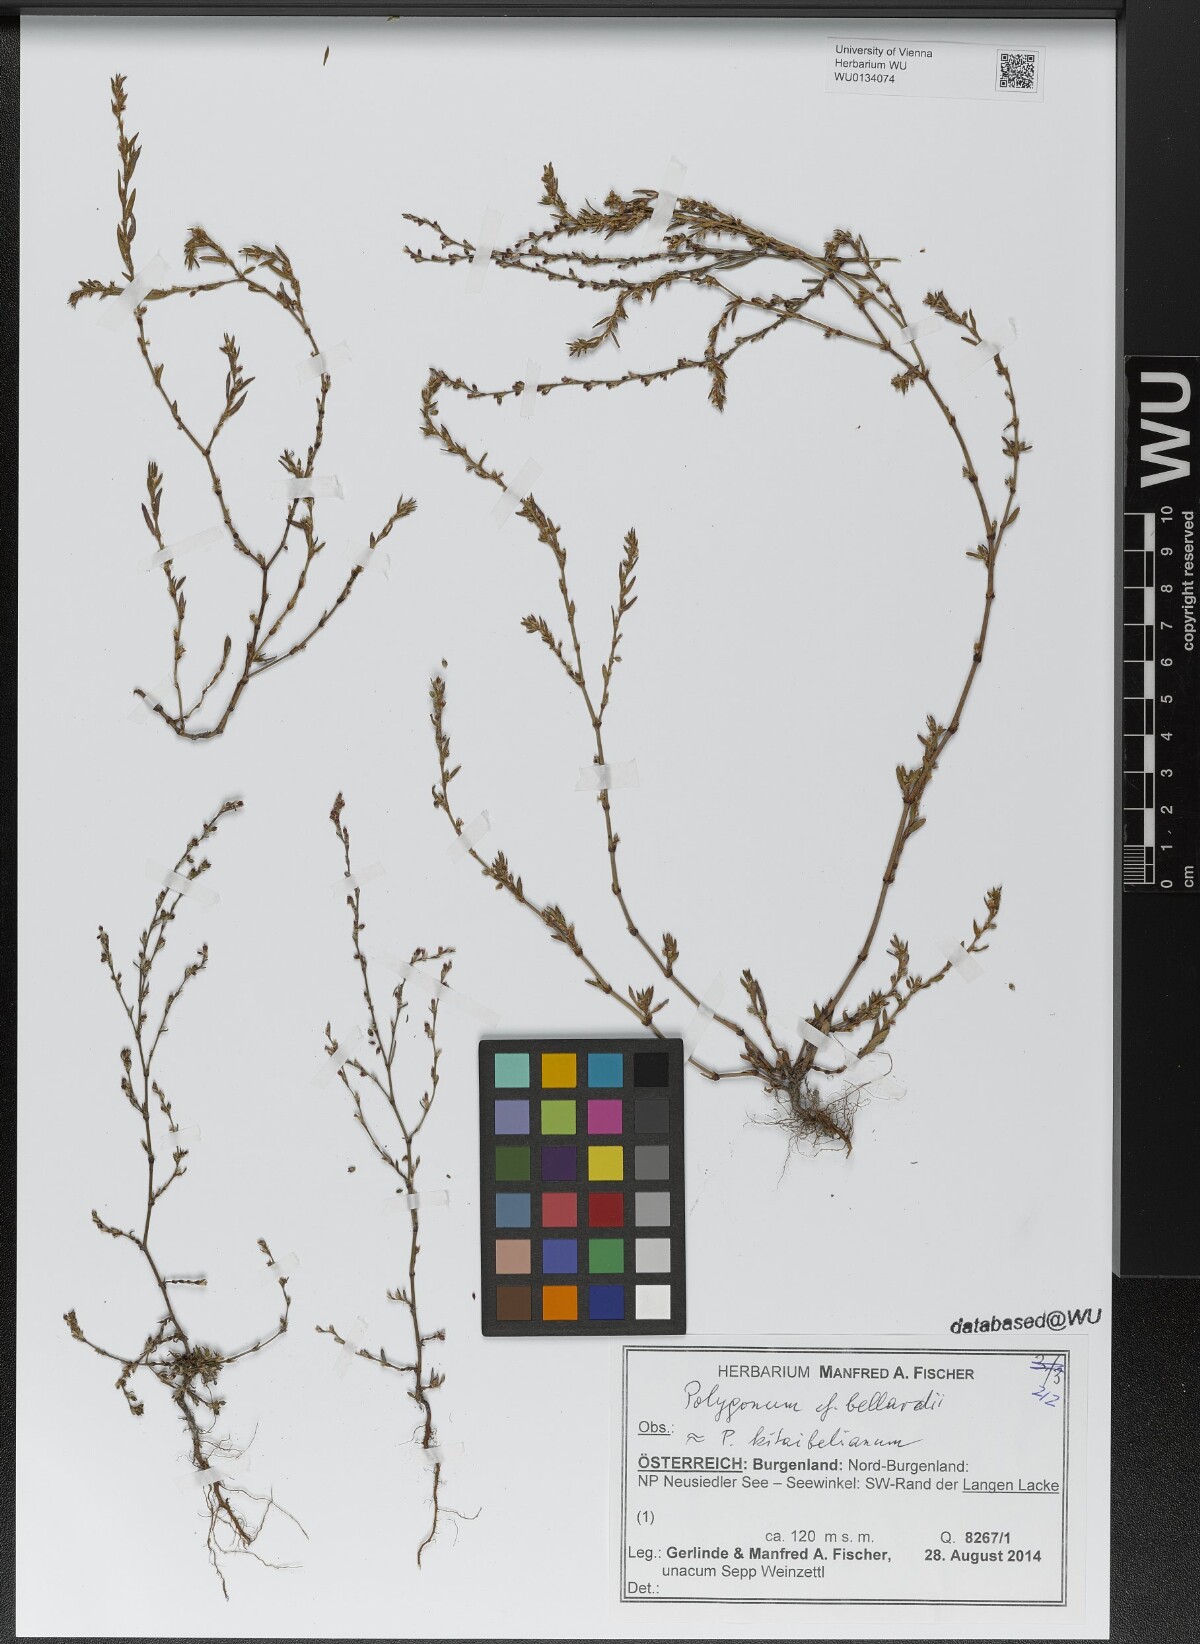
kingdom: Plantae
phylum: Tracheophyta
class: Magnoliopsida
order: Caryophyllales
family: Polygonaceae
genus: Polygonum
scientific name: Polygonum bellardii
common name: Narrowleaf knotweed
